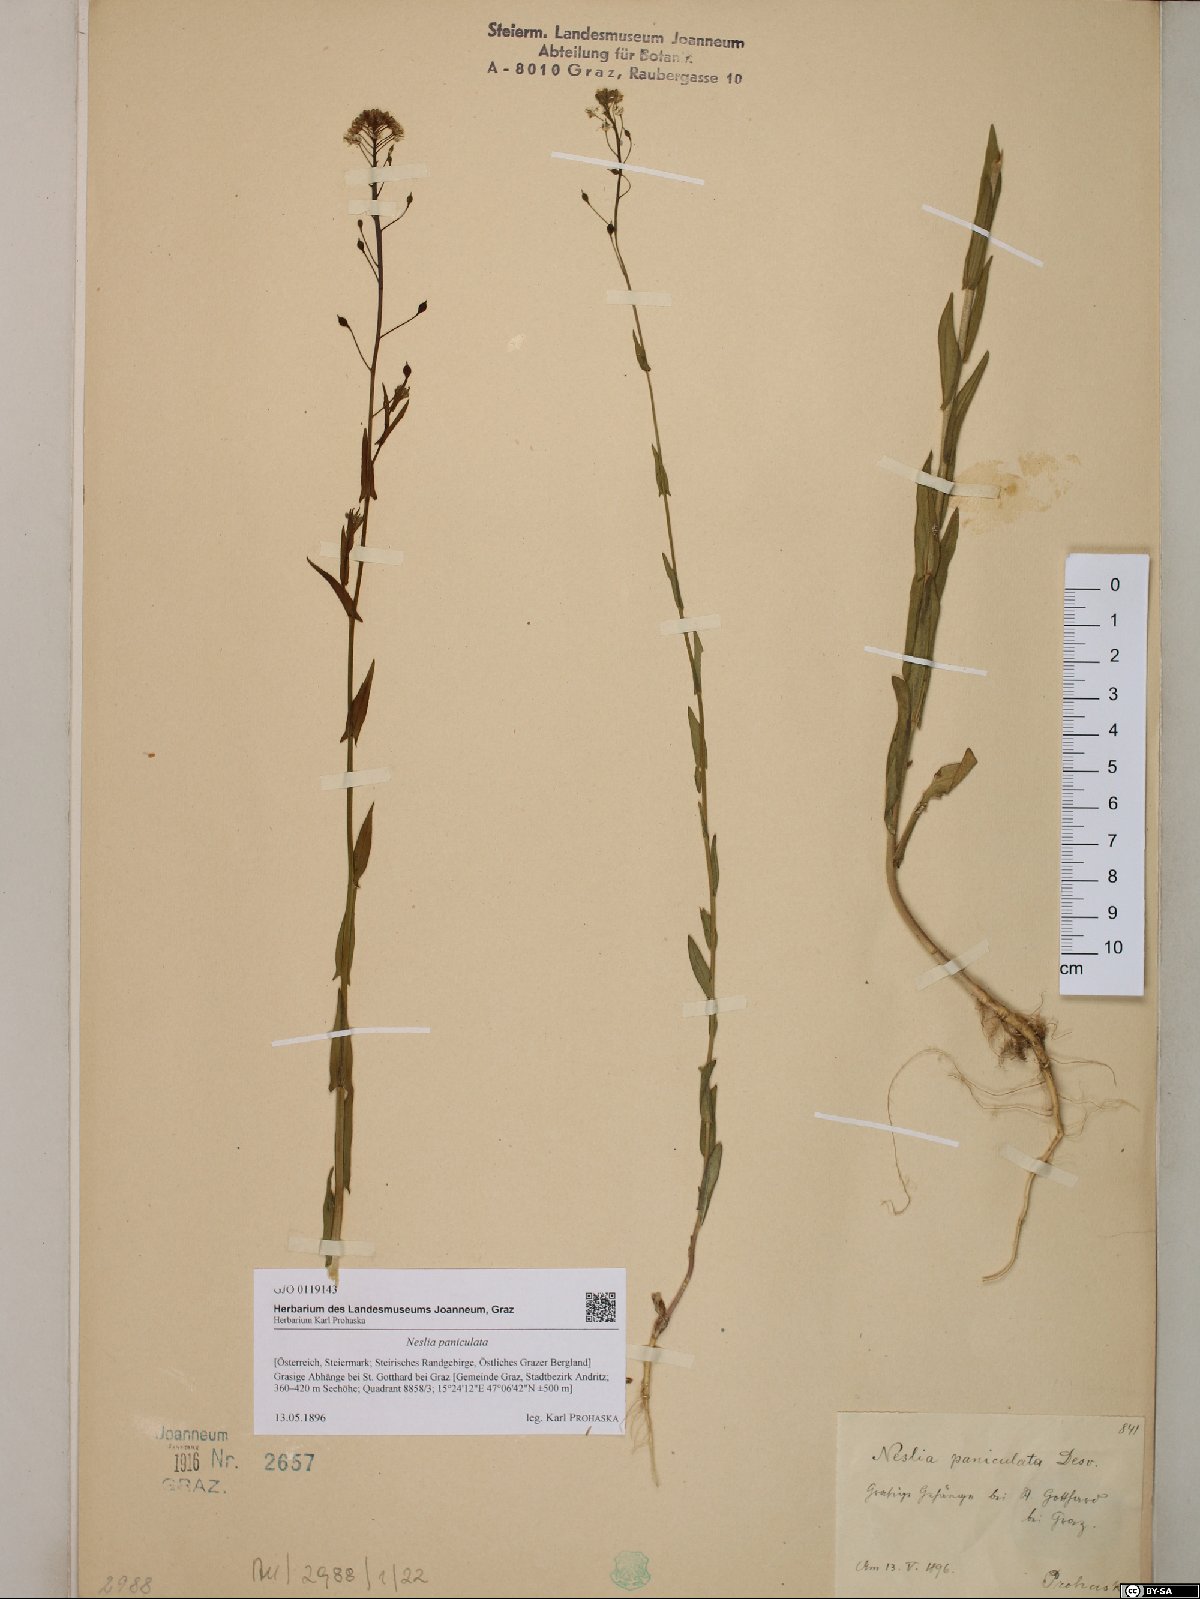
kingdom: Plantae
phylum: Tracheophyta
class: Magnoliopsida
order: Brassicales
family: Brassicaceae
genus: Neslia
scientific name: Neslia paniculata
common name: Ball mustard
